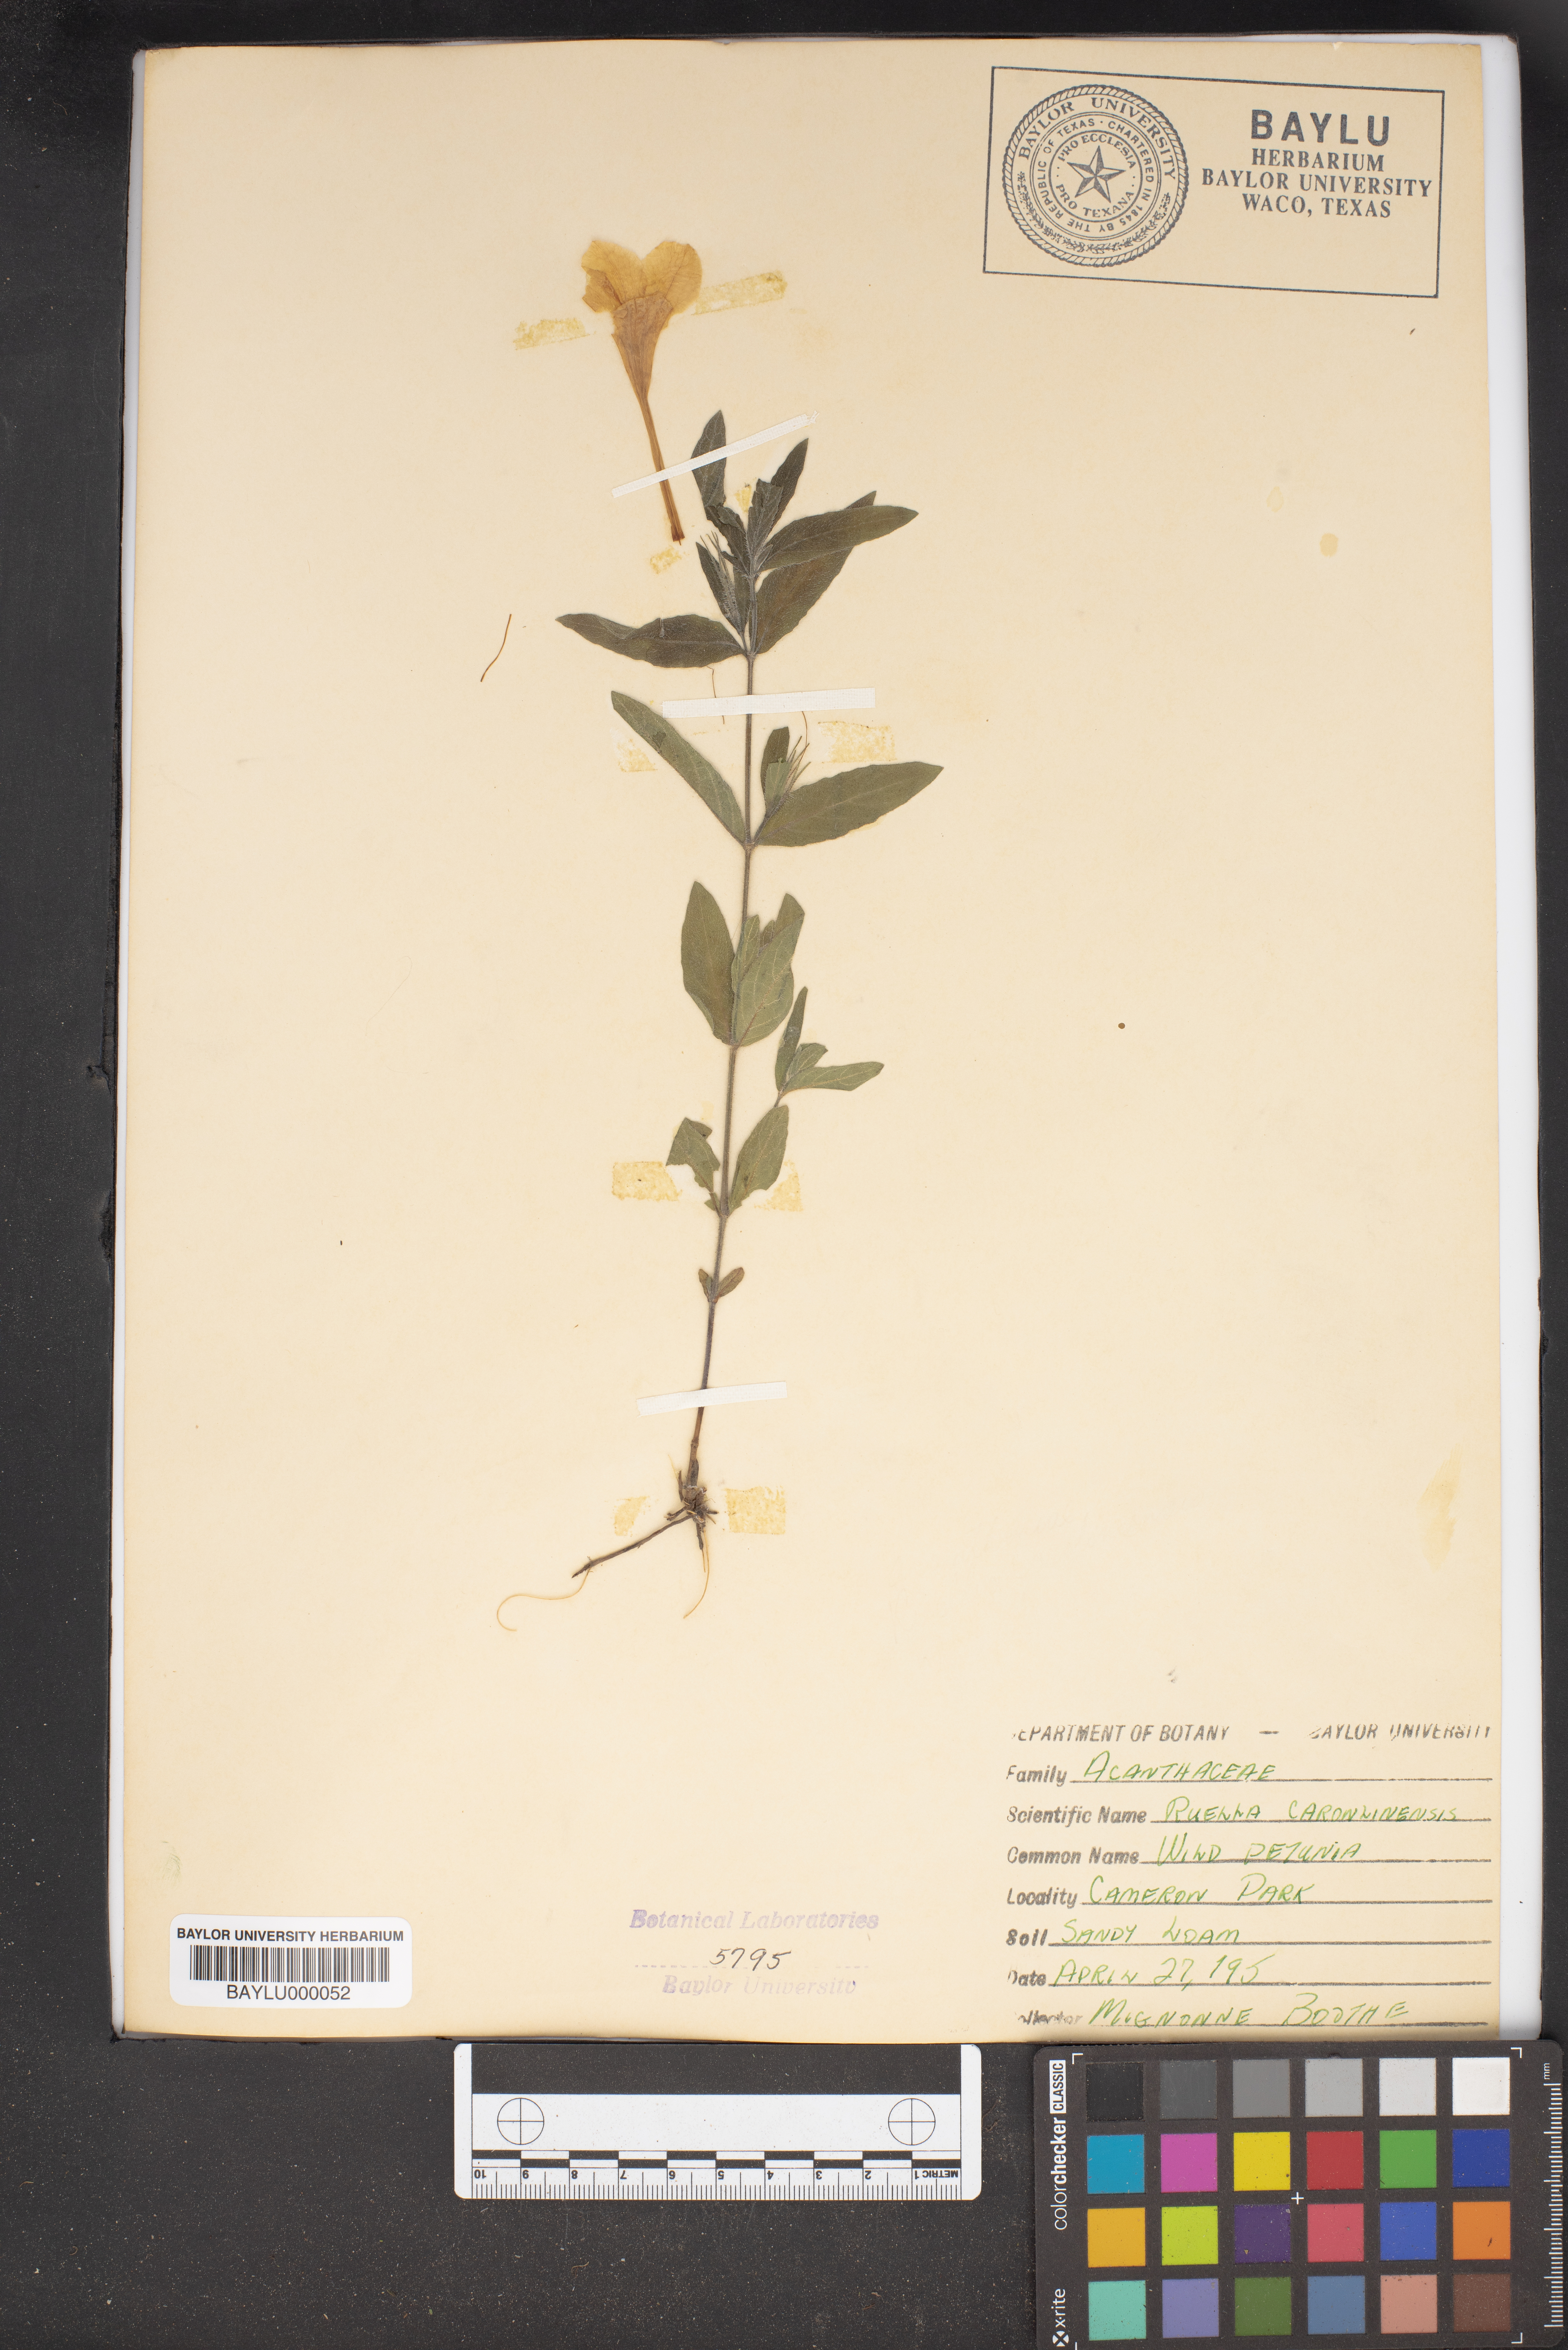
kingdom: Plantae
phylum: Tracheophyta
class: Magnoliopsida
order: Lamiales
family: Acanthaceae
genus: Ruellia
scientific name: Ruellia caroliniensis
